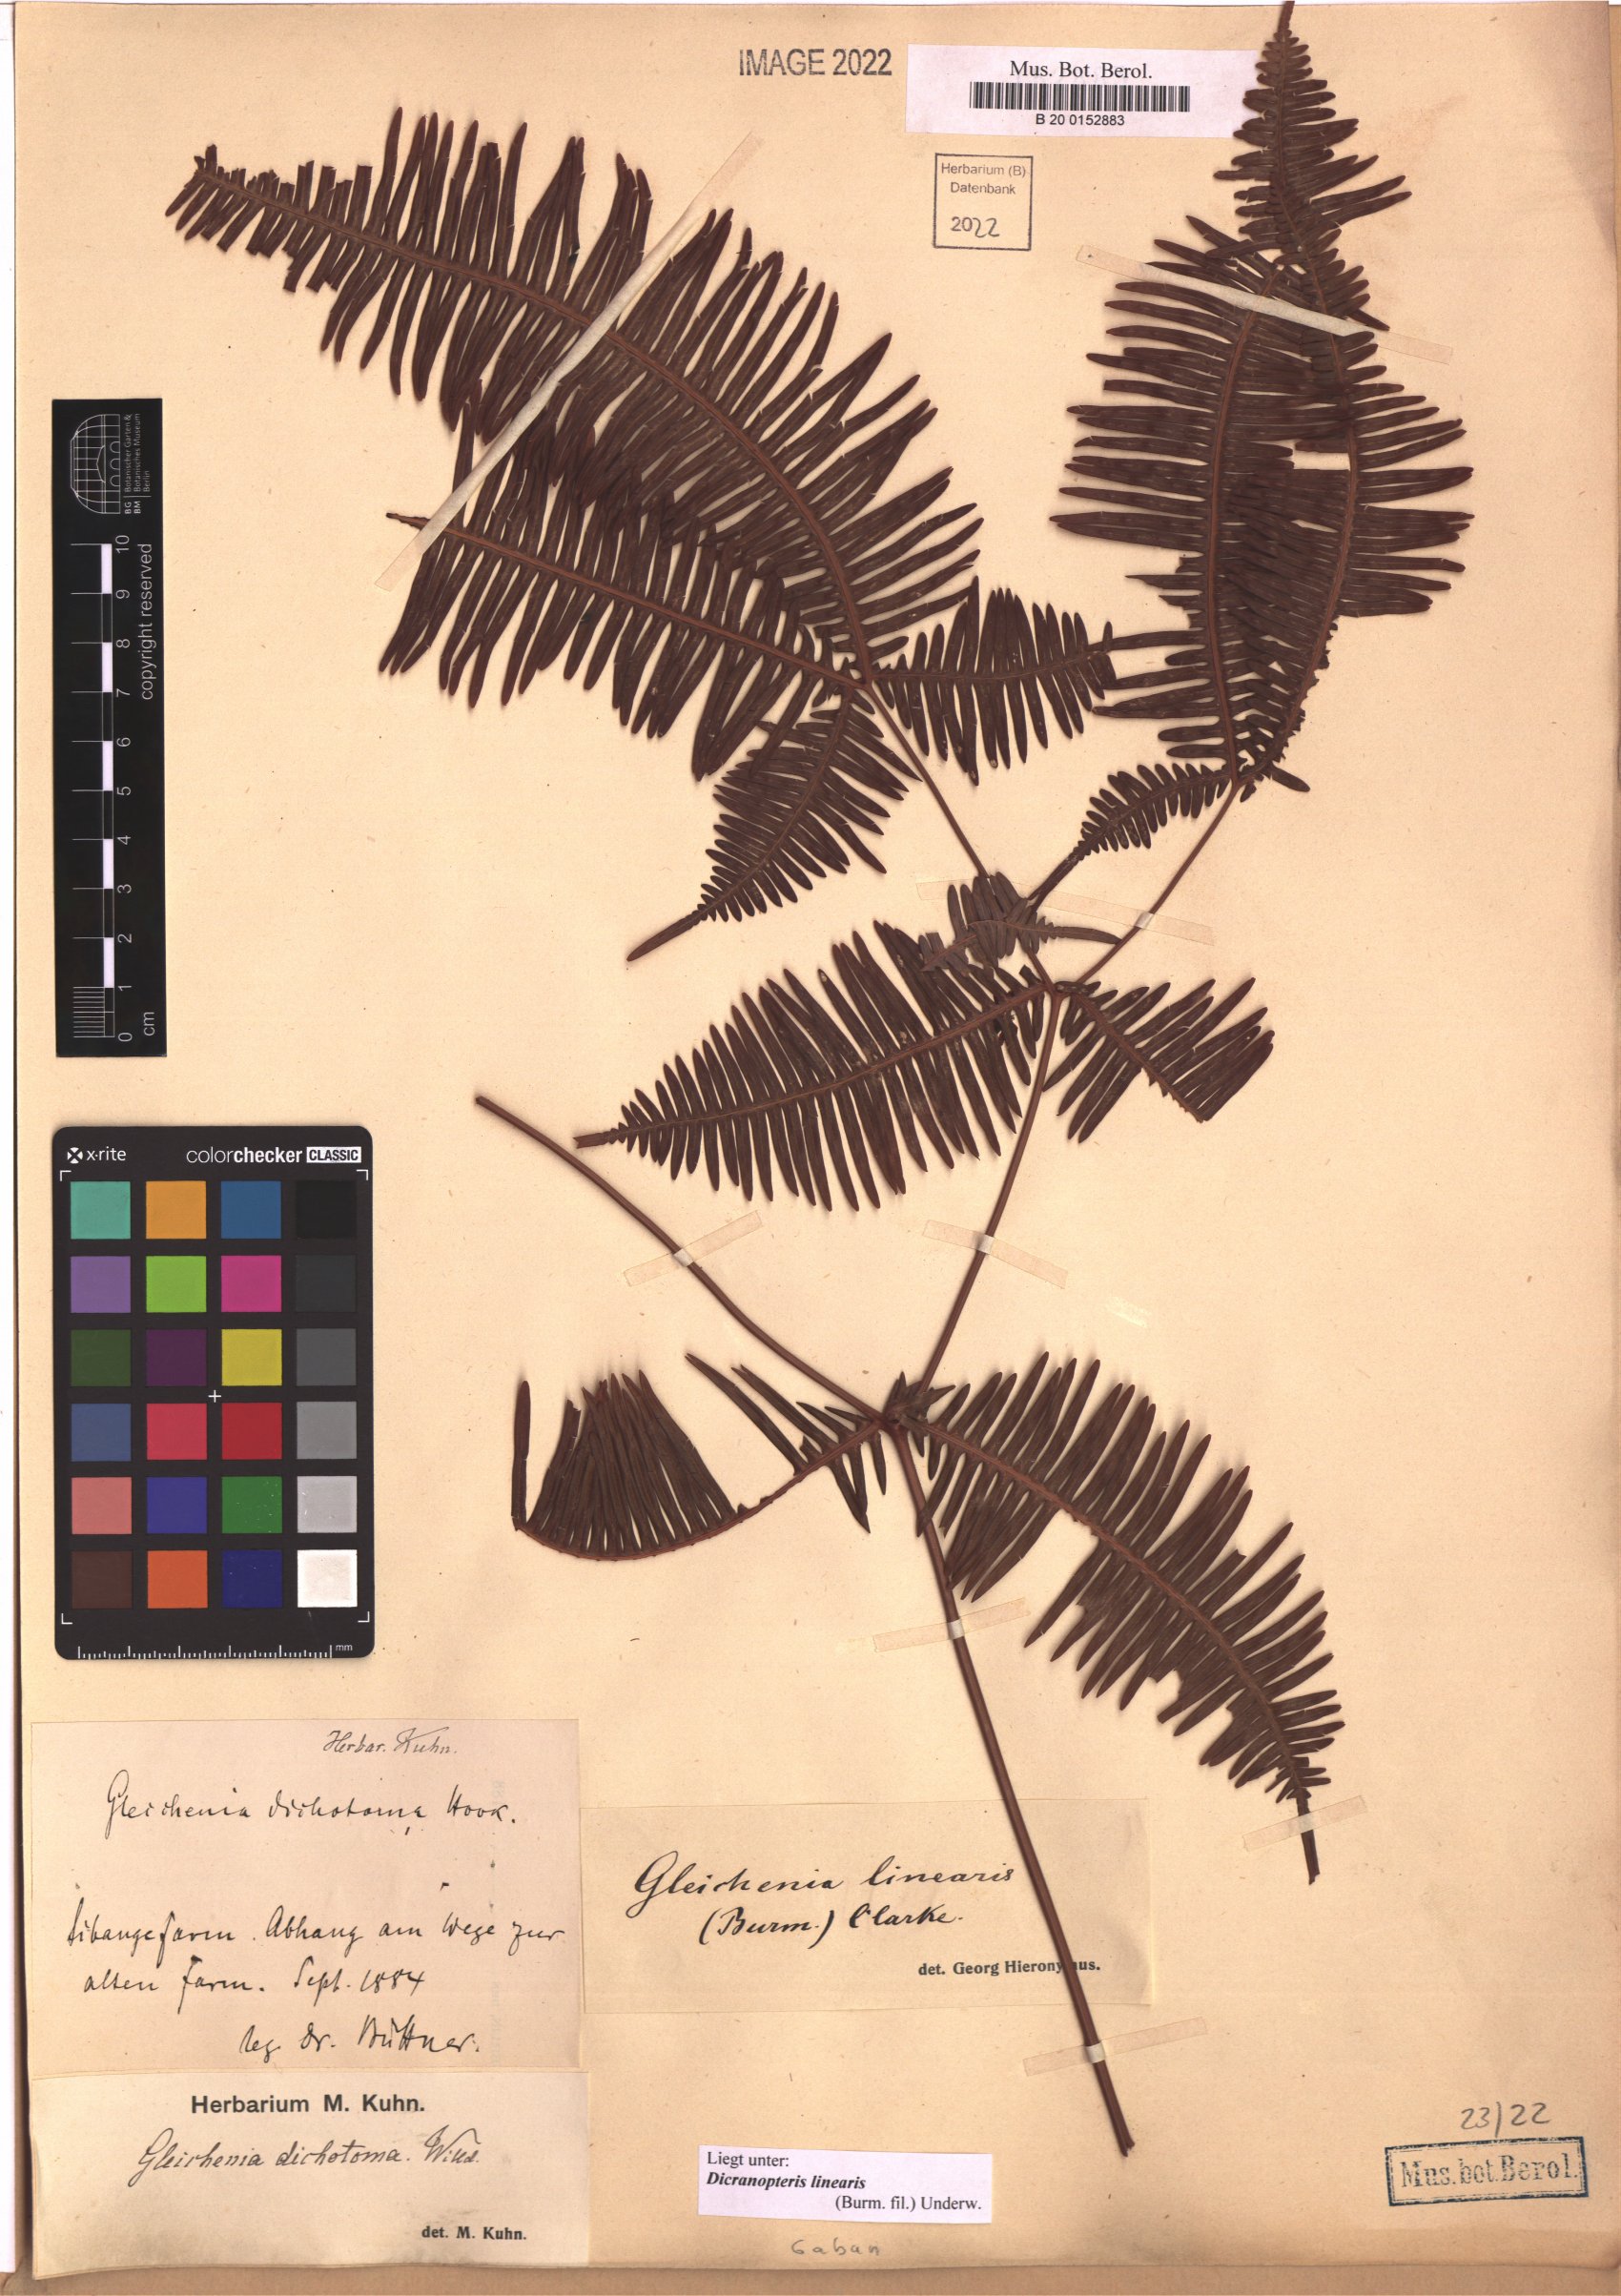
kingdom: Plantae
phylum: Tracheophyta
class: Polypodiopsida
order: Gleicheniales
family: Gleicheniaceae
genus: Dicranopteris
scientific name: Dicranopteris linearis
